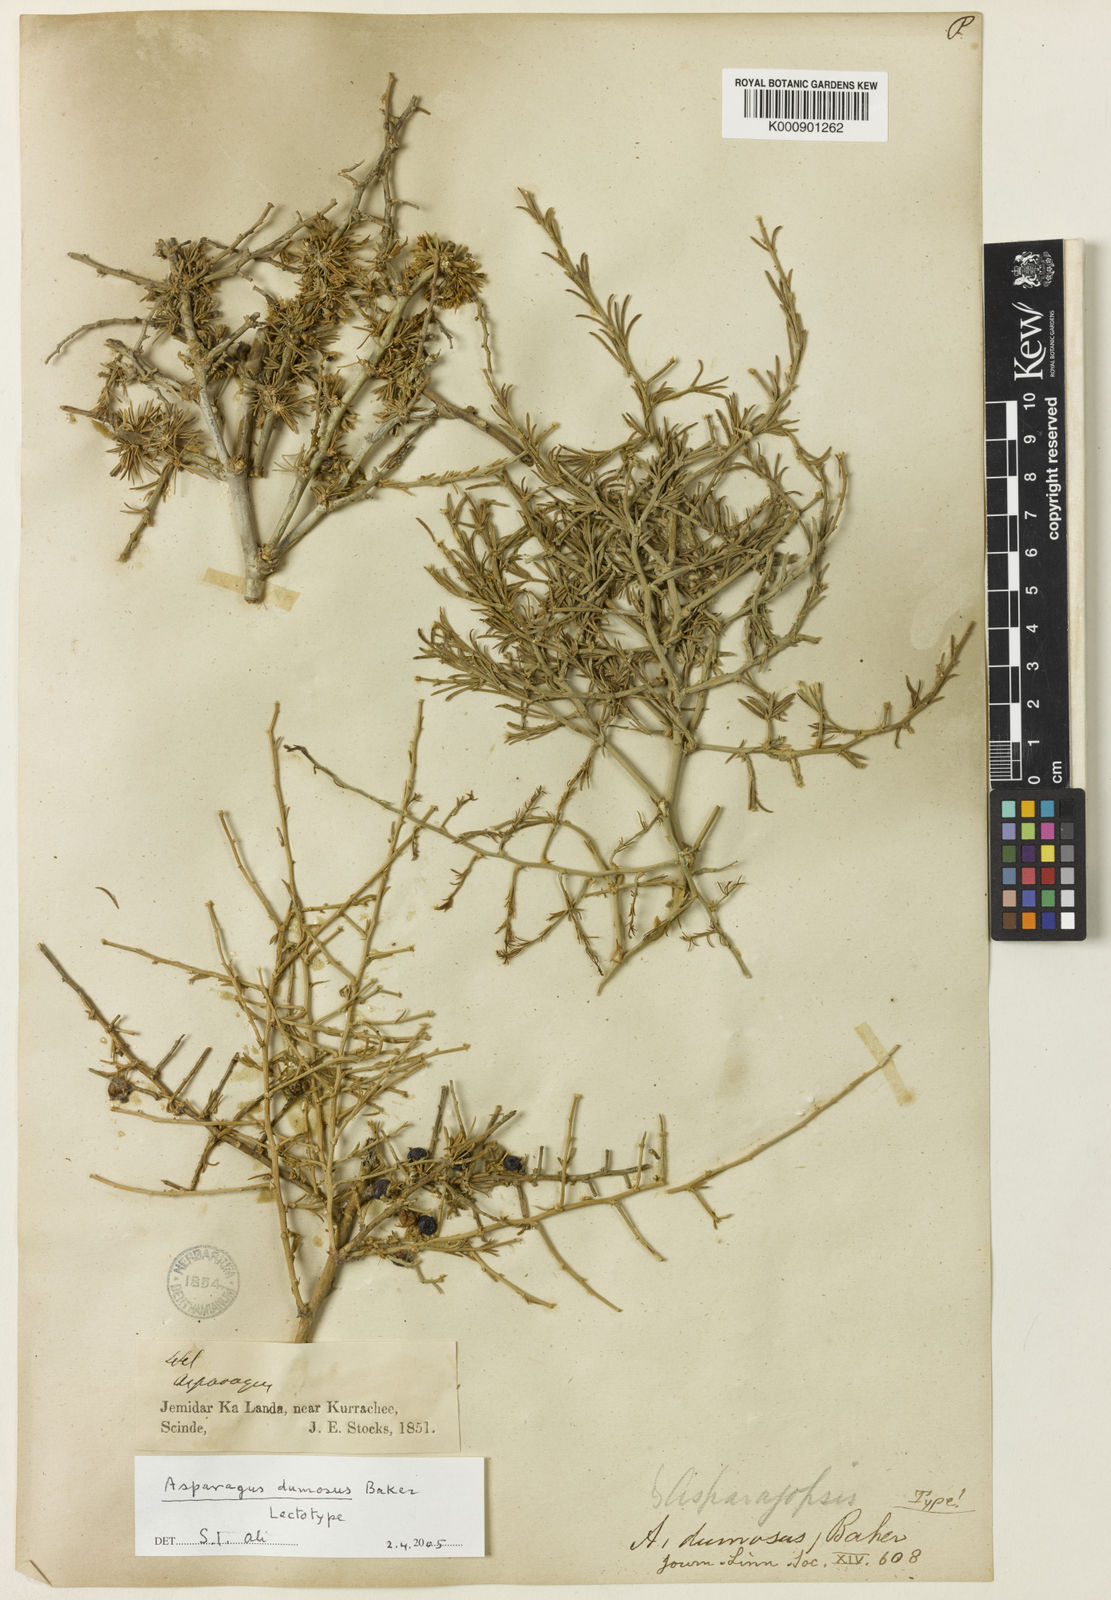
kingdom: Plantae
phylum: Tracheophyta
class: Liliopsida
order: Asparagales
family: Asparagaceae
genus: Asparagus
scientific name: Asparagus dumosus
